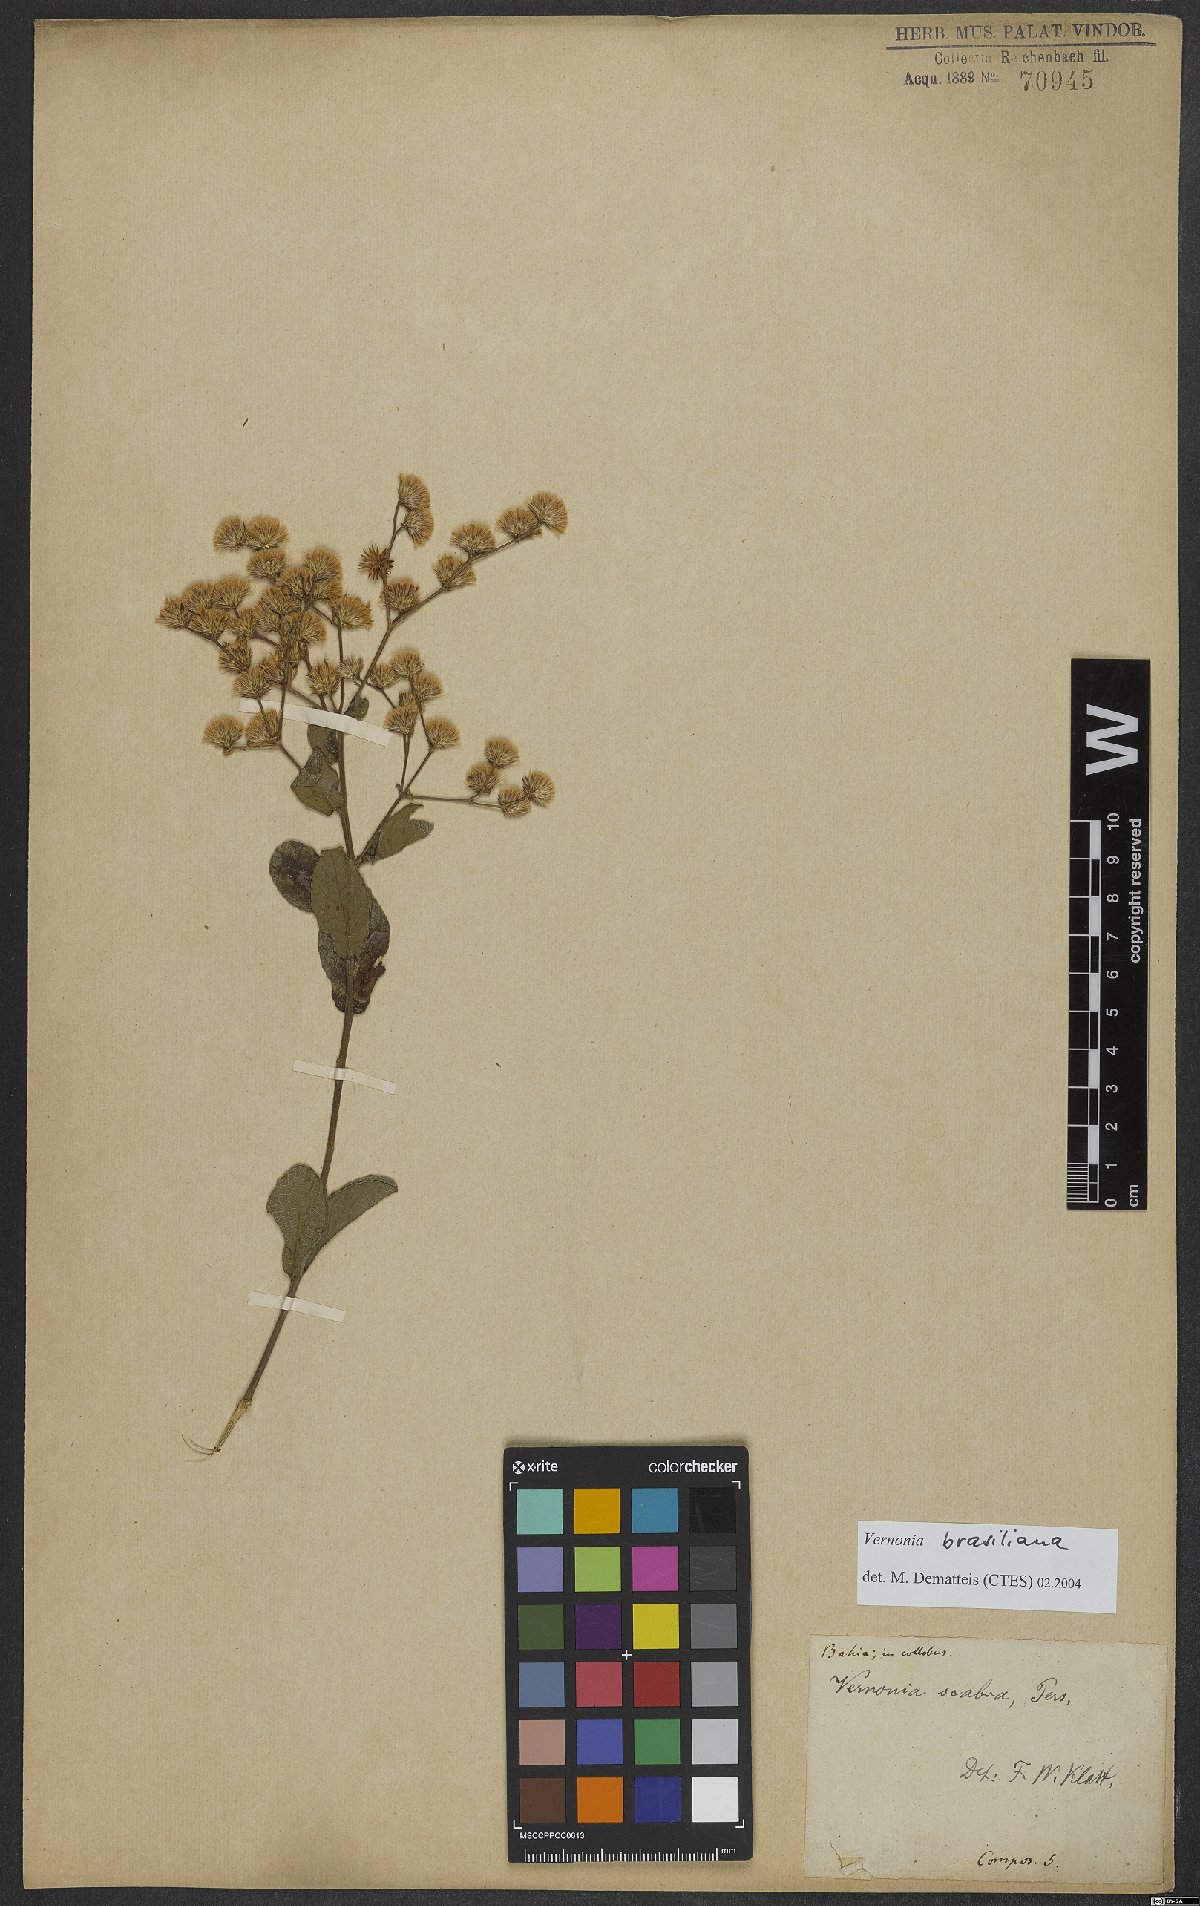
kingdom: Plantae
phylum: Tracheophyta
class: Magnoliopsida
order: Asterales
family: Asteraceae
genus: Vernonanthura
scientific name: Vernonanthura brasiliana
